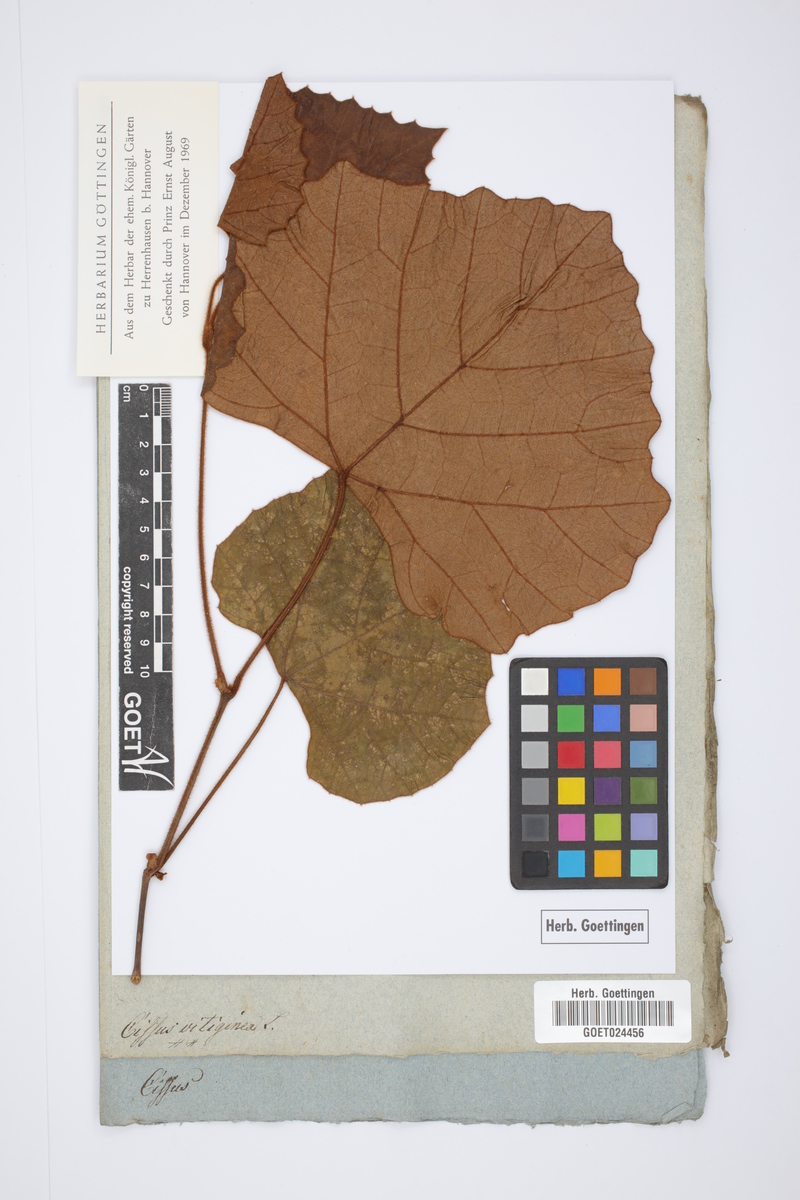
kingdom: Plantae
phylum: Tracheophyta
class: Magnoliopsida
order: Vitales
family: Vitaceae
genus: Cissus
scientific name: Cissus vitiginea
